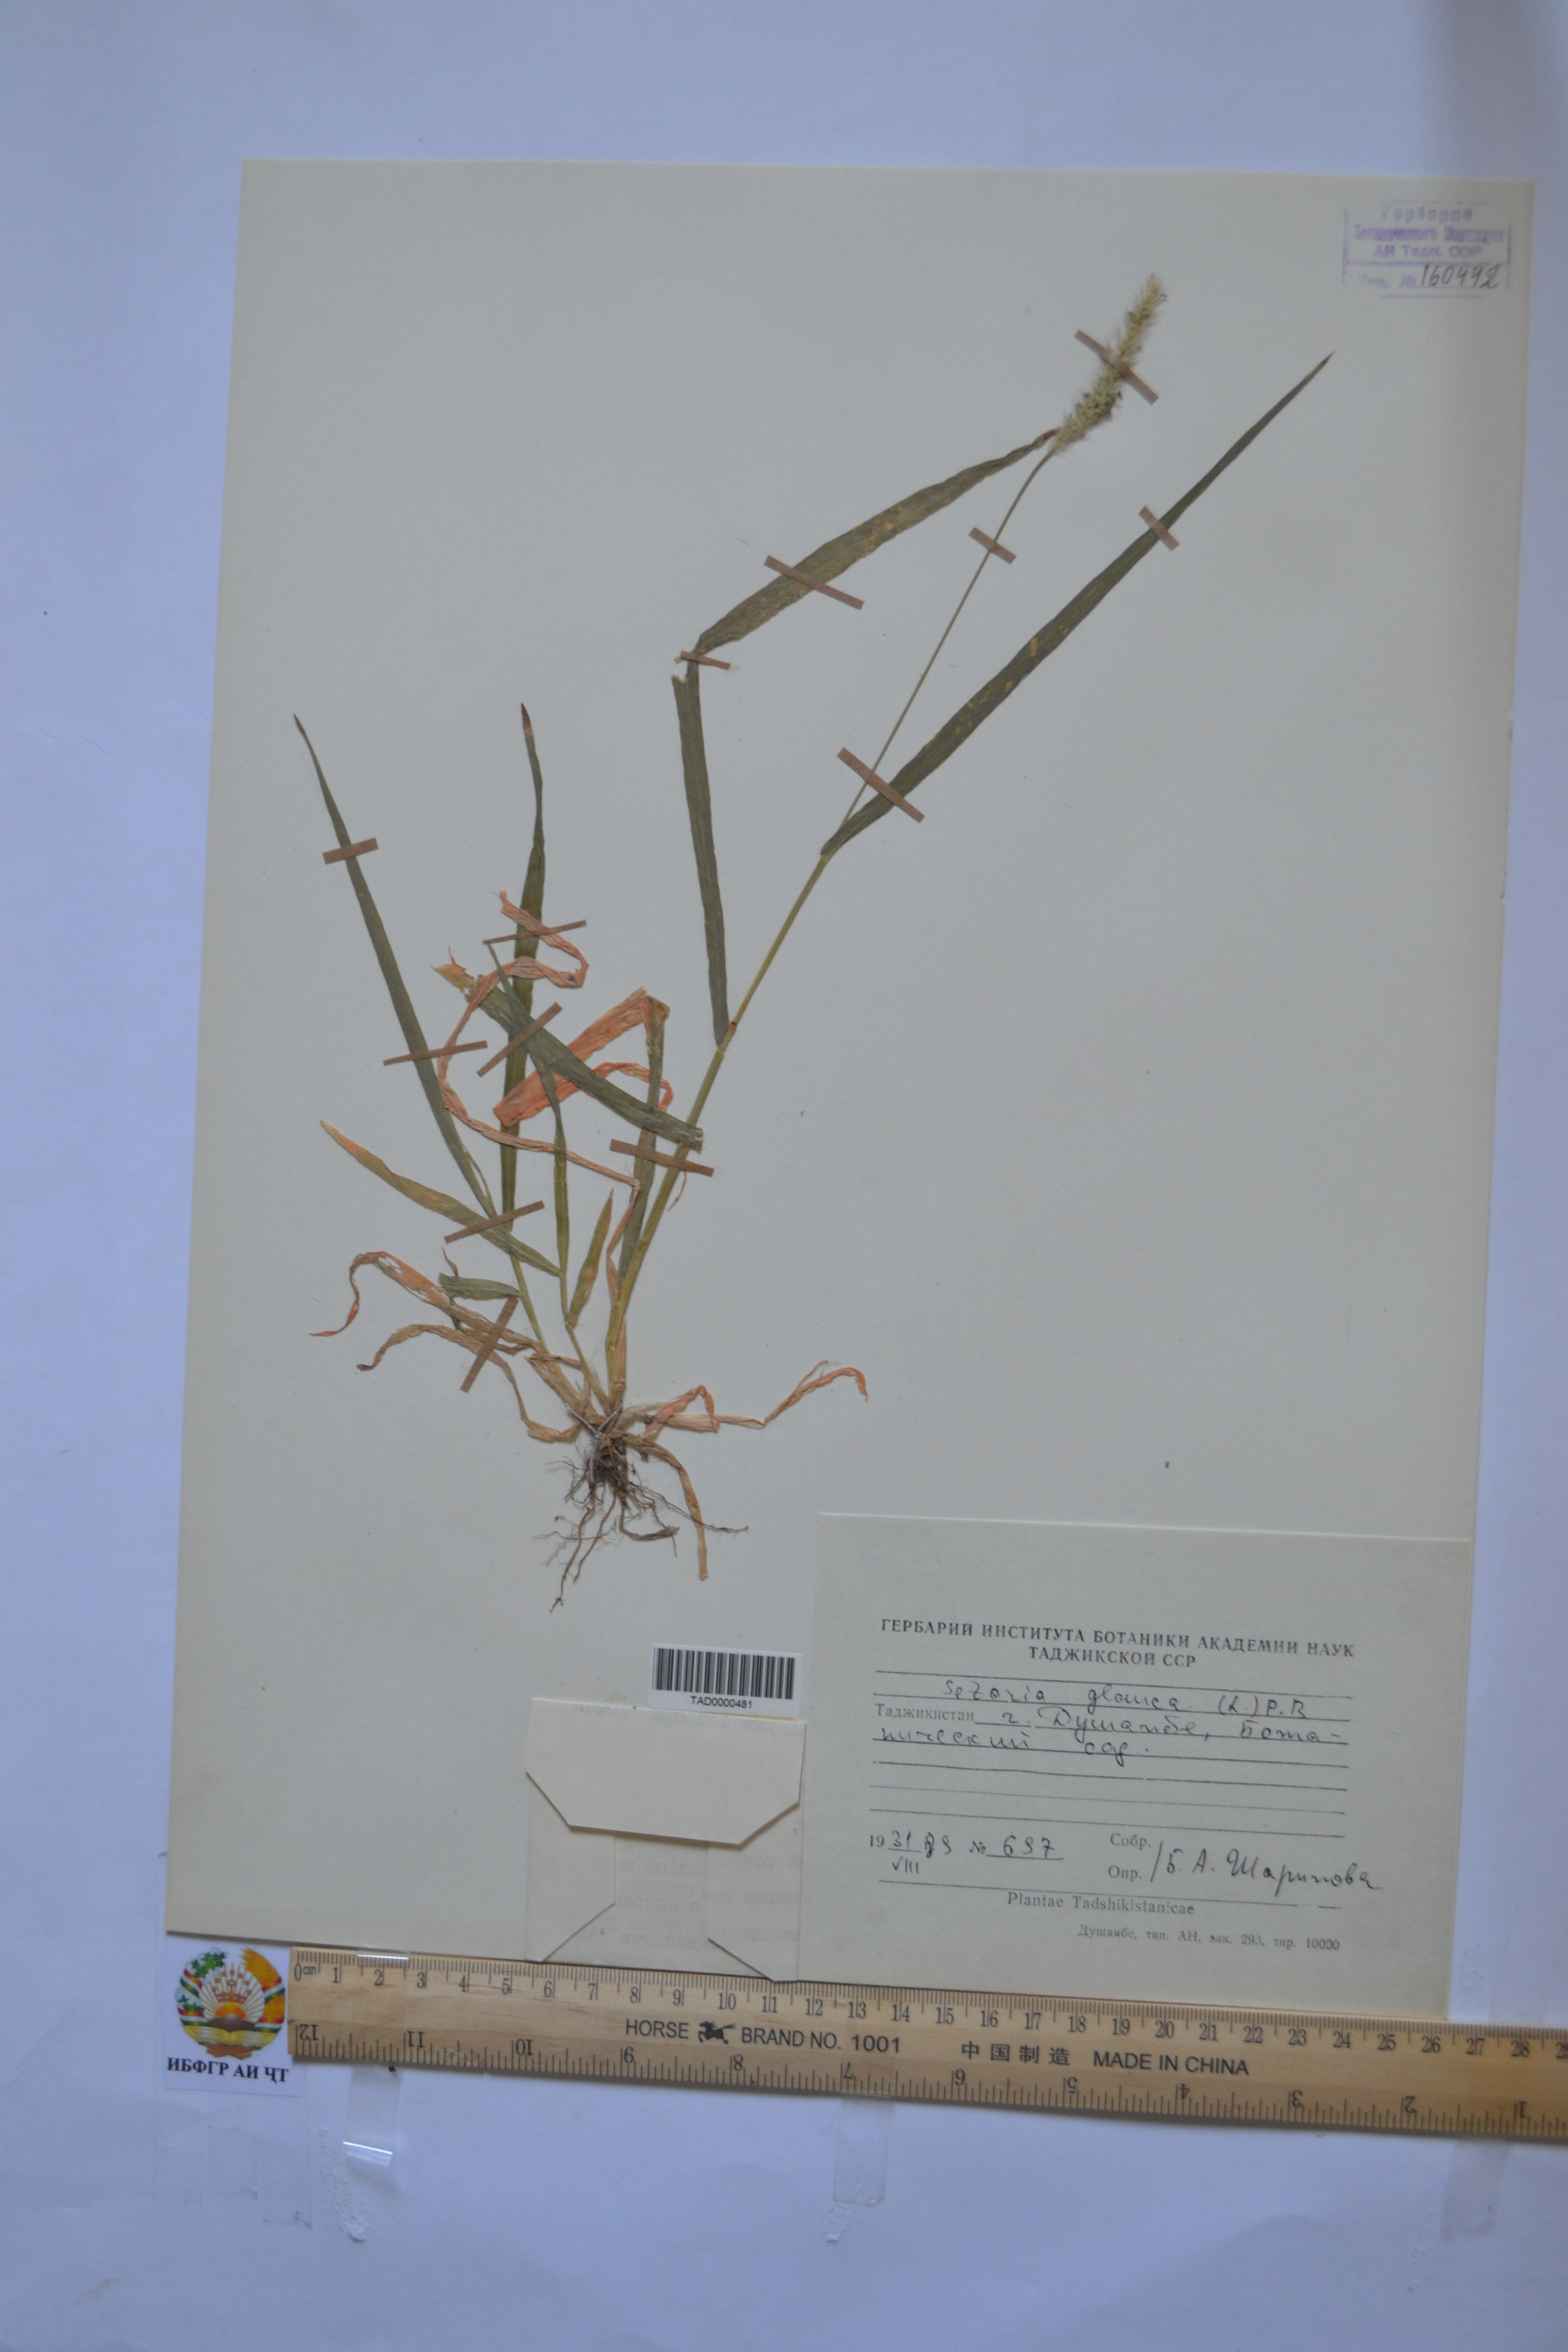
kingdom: Plantae
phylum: Tracheophyta
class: Liliopsida
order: Poales
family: Poaceae
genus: Cenchrus
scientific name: Cenchrus americanus
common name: Pearl millet
